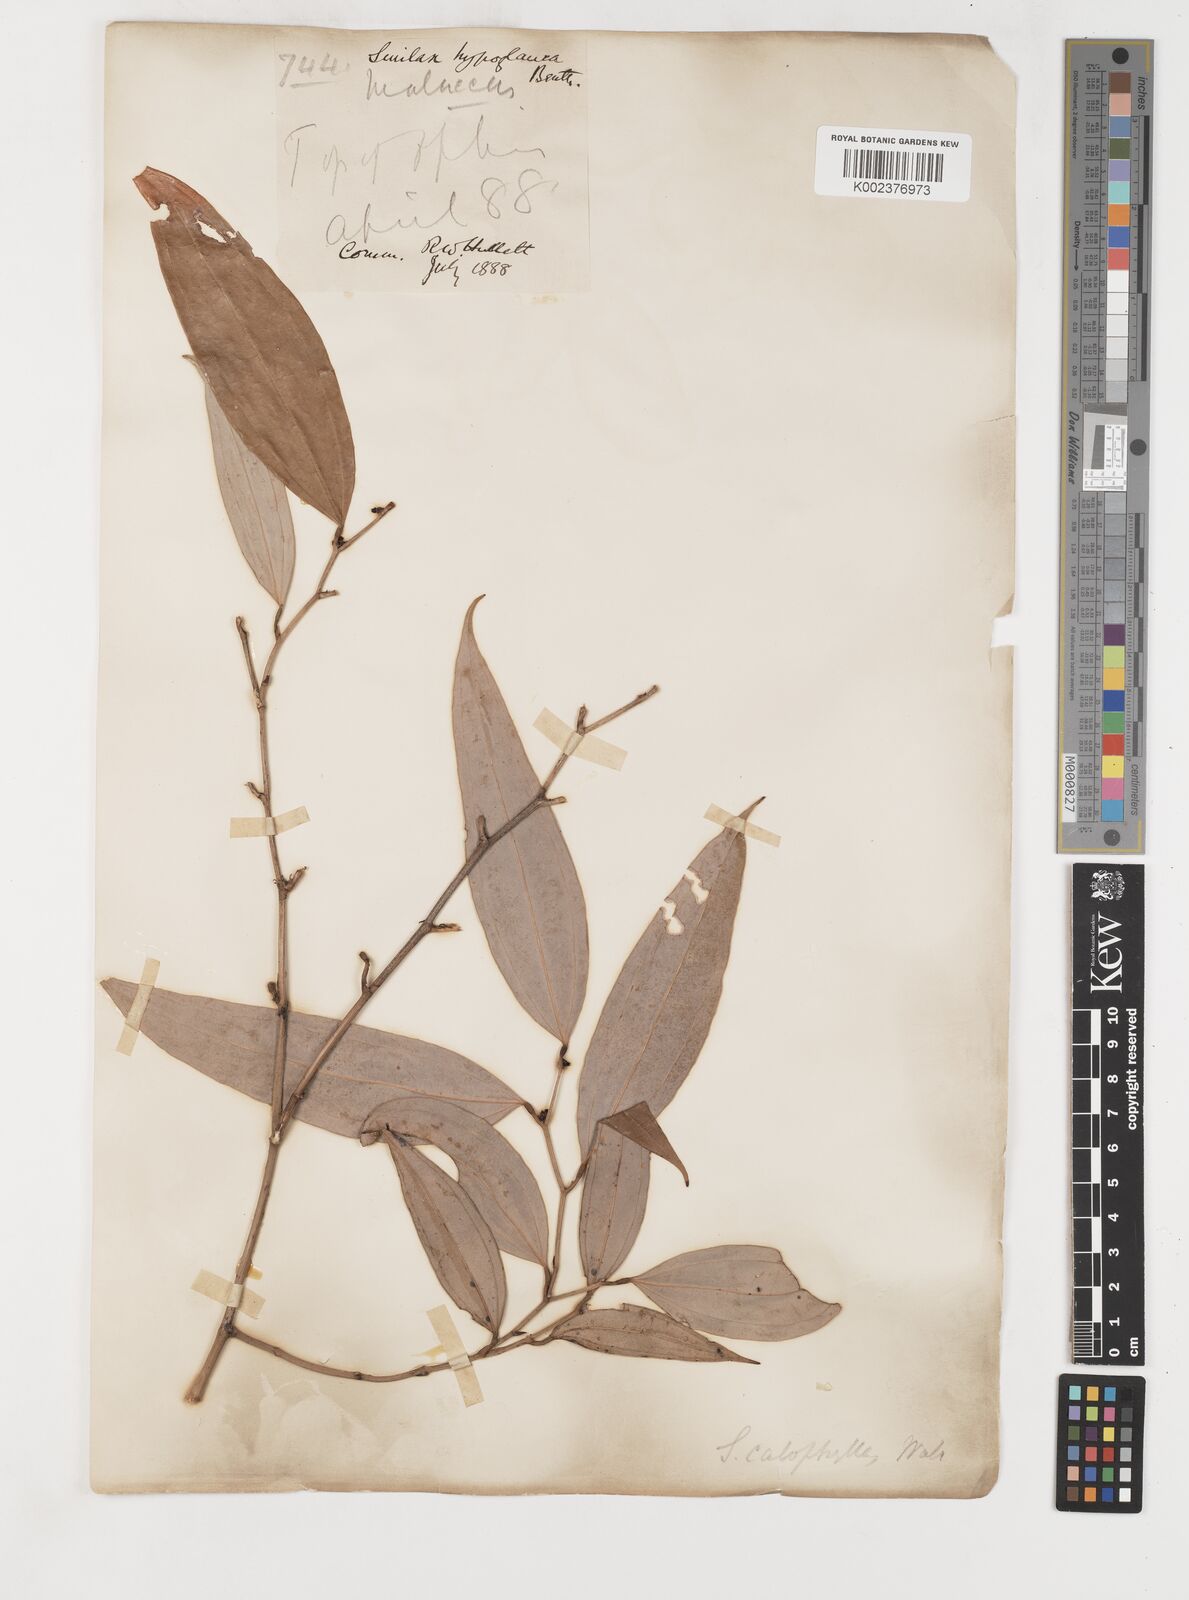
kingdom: Plantae
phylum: Tracheophyta
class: Liliopsida
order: Liliales
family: Smilacaceae
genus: Smilax
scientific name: Smilax calophylla
